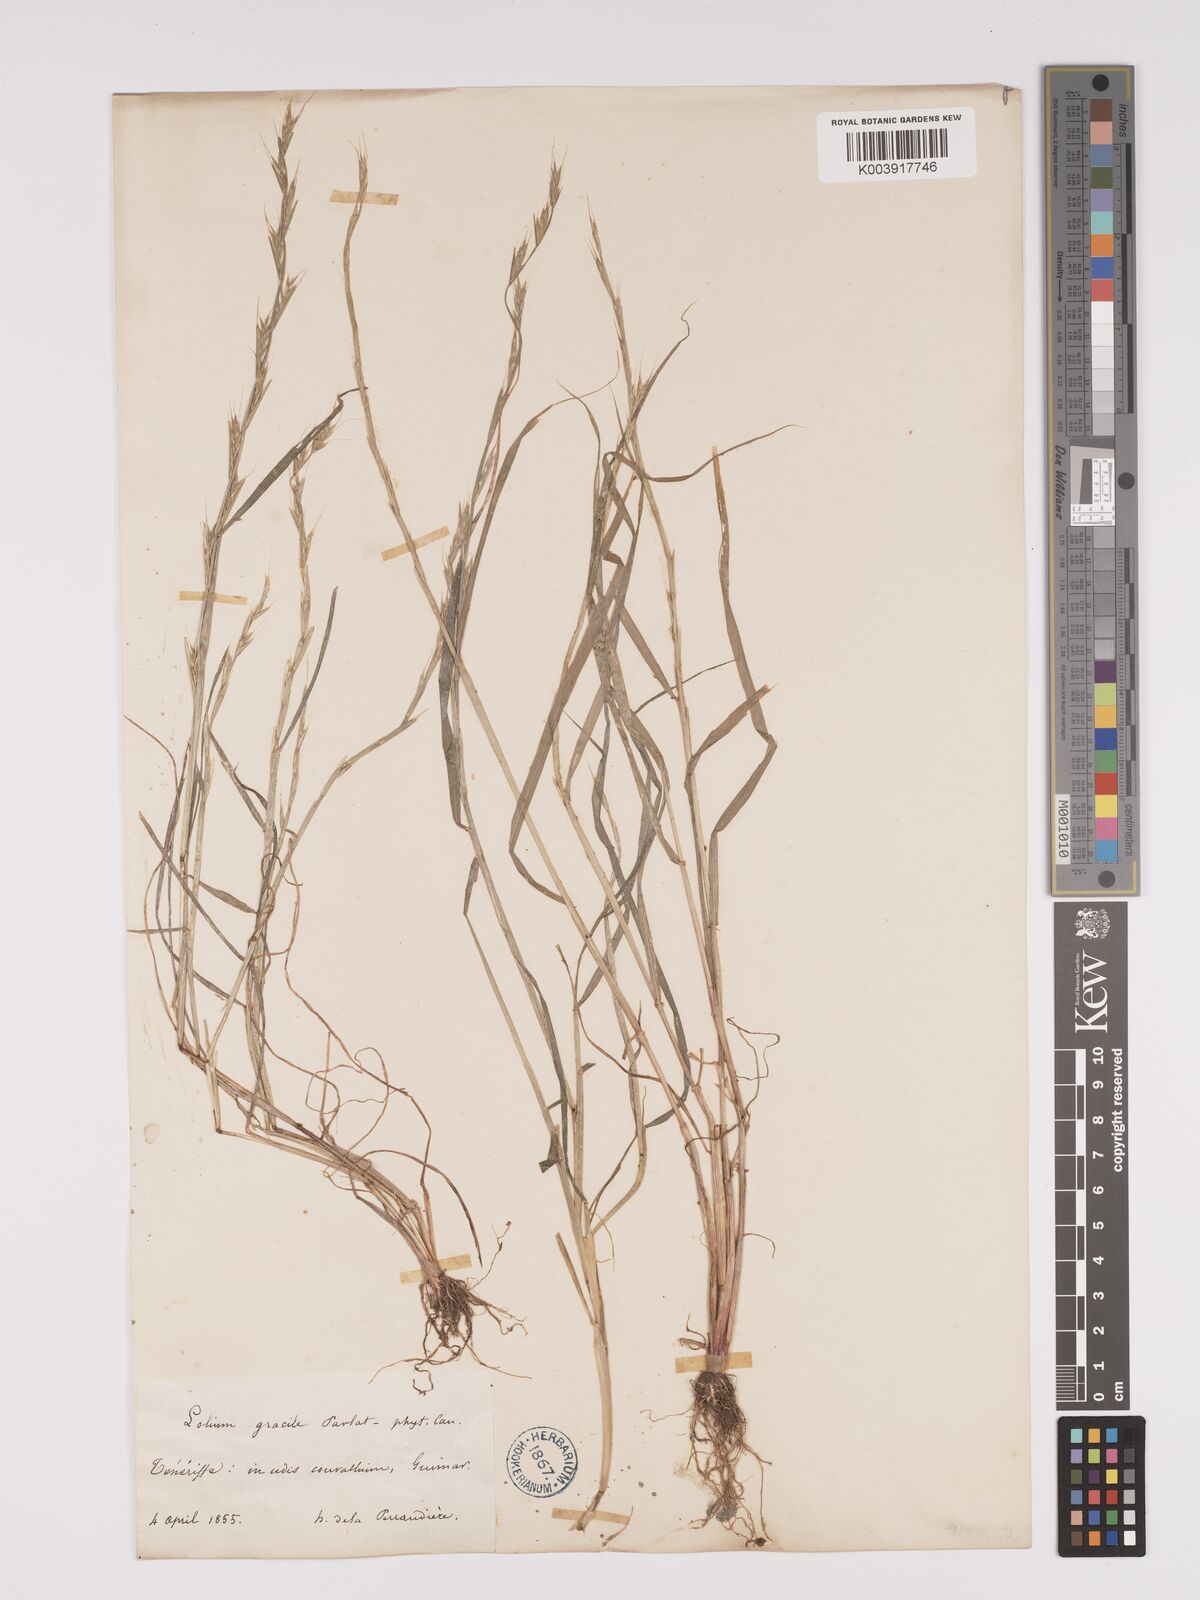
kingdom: Plantae
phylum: Tracheophyta
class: Liliopsida
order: Poales
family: Poaceae
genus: Lolium
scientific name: Lolium canariense
